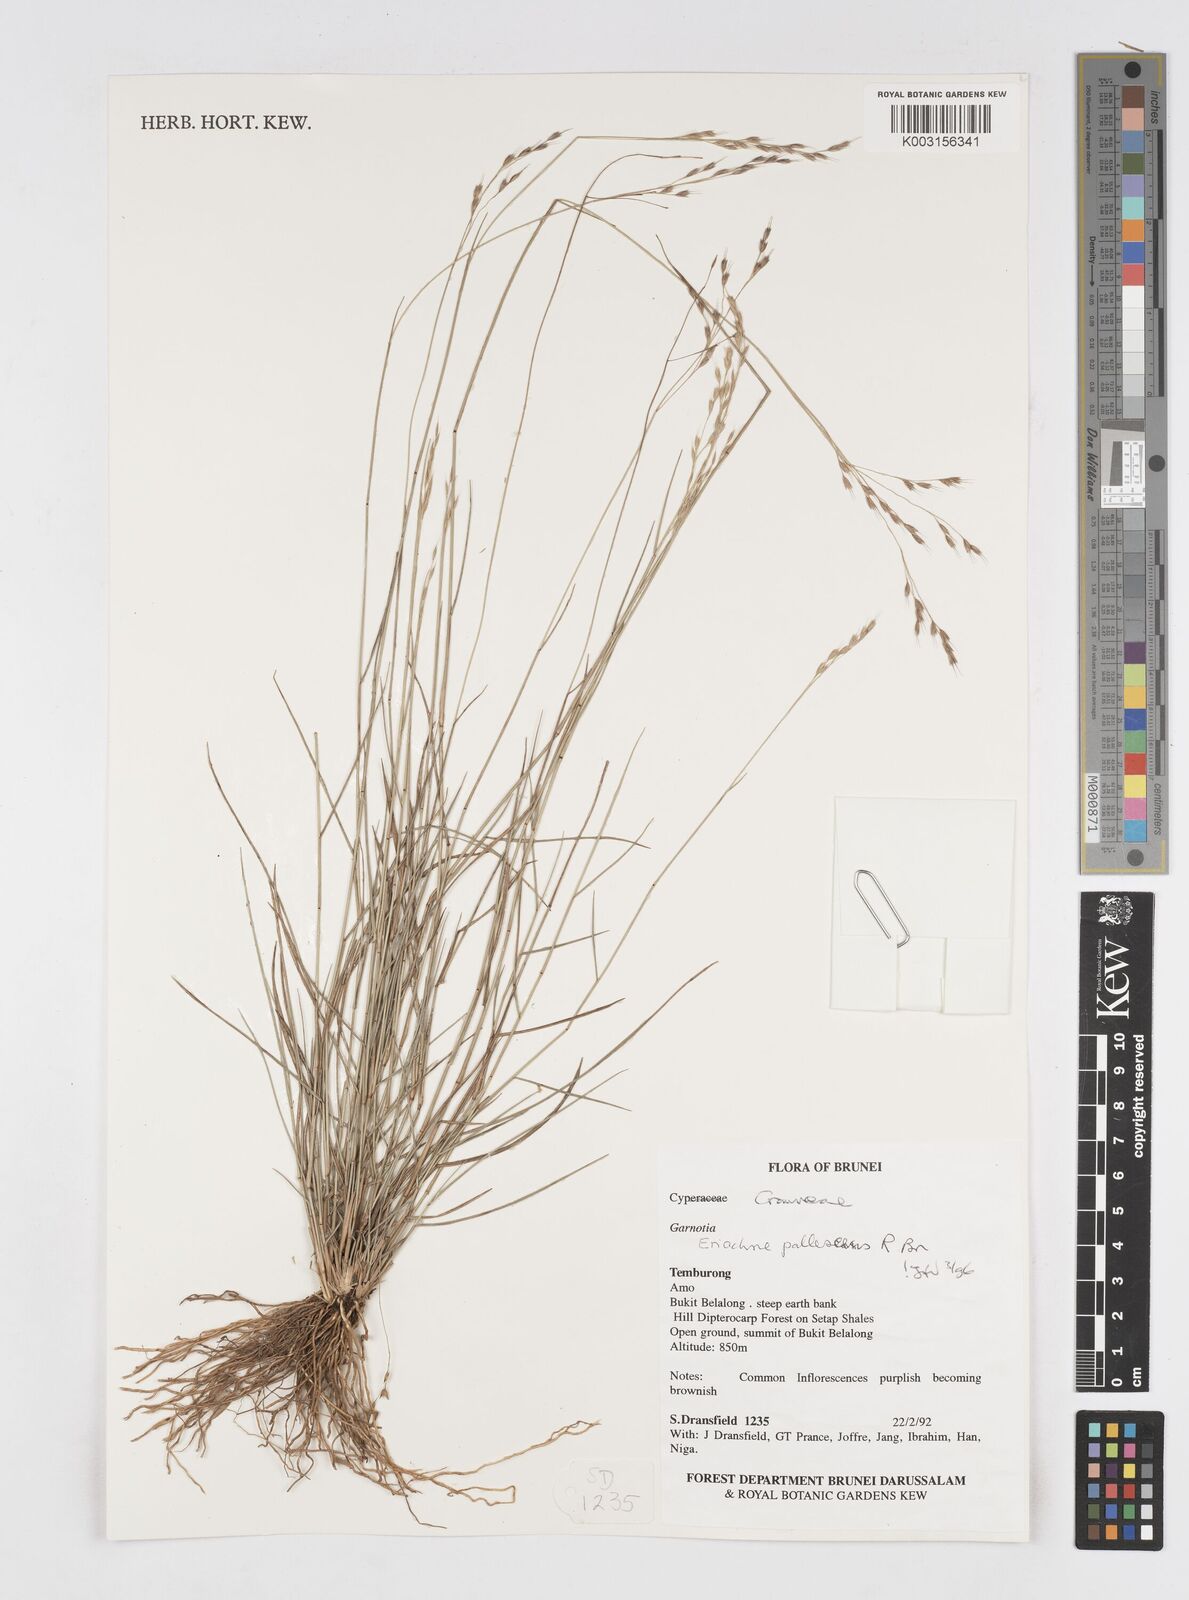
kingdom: Plantae
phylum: Tracheophyta
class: Liliopsida
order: Poales
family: Poaceae
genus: Eriachne
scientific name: Eriachne pallescens
